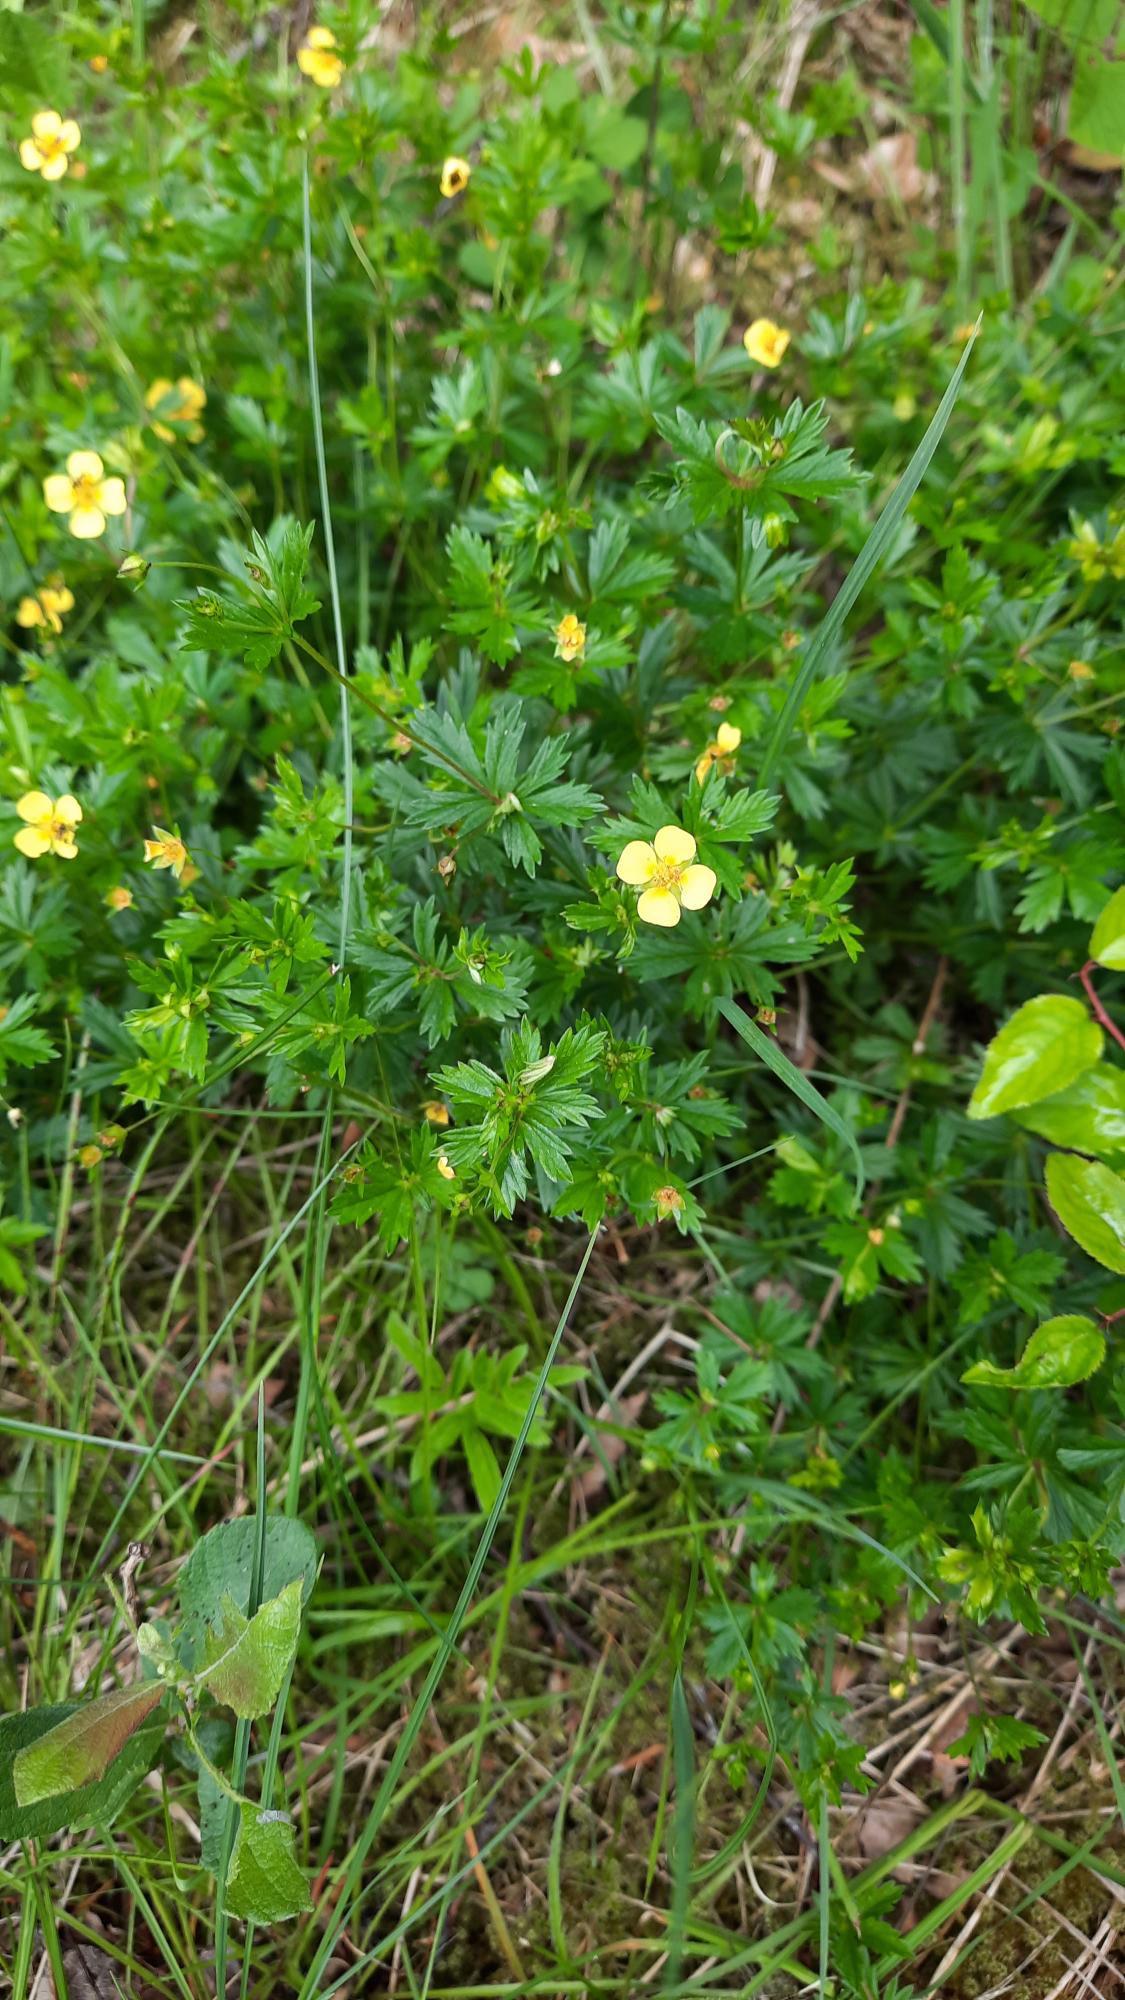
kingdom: Plantae
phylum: Tracheophyta
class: Magnoliopsida
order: Rosales
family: Rosaceae
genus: Potentilla
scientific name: Potentilla erecta
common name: Tormentil
